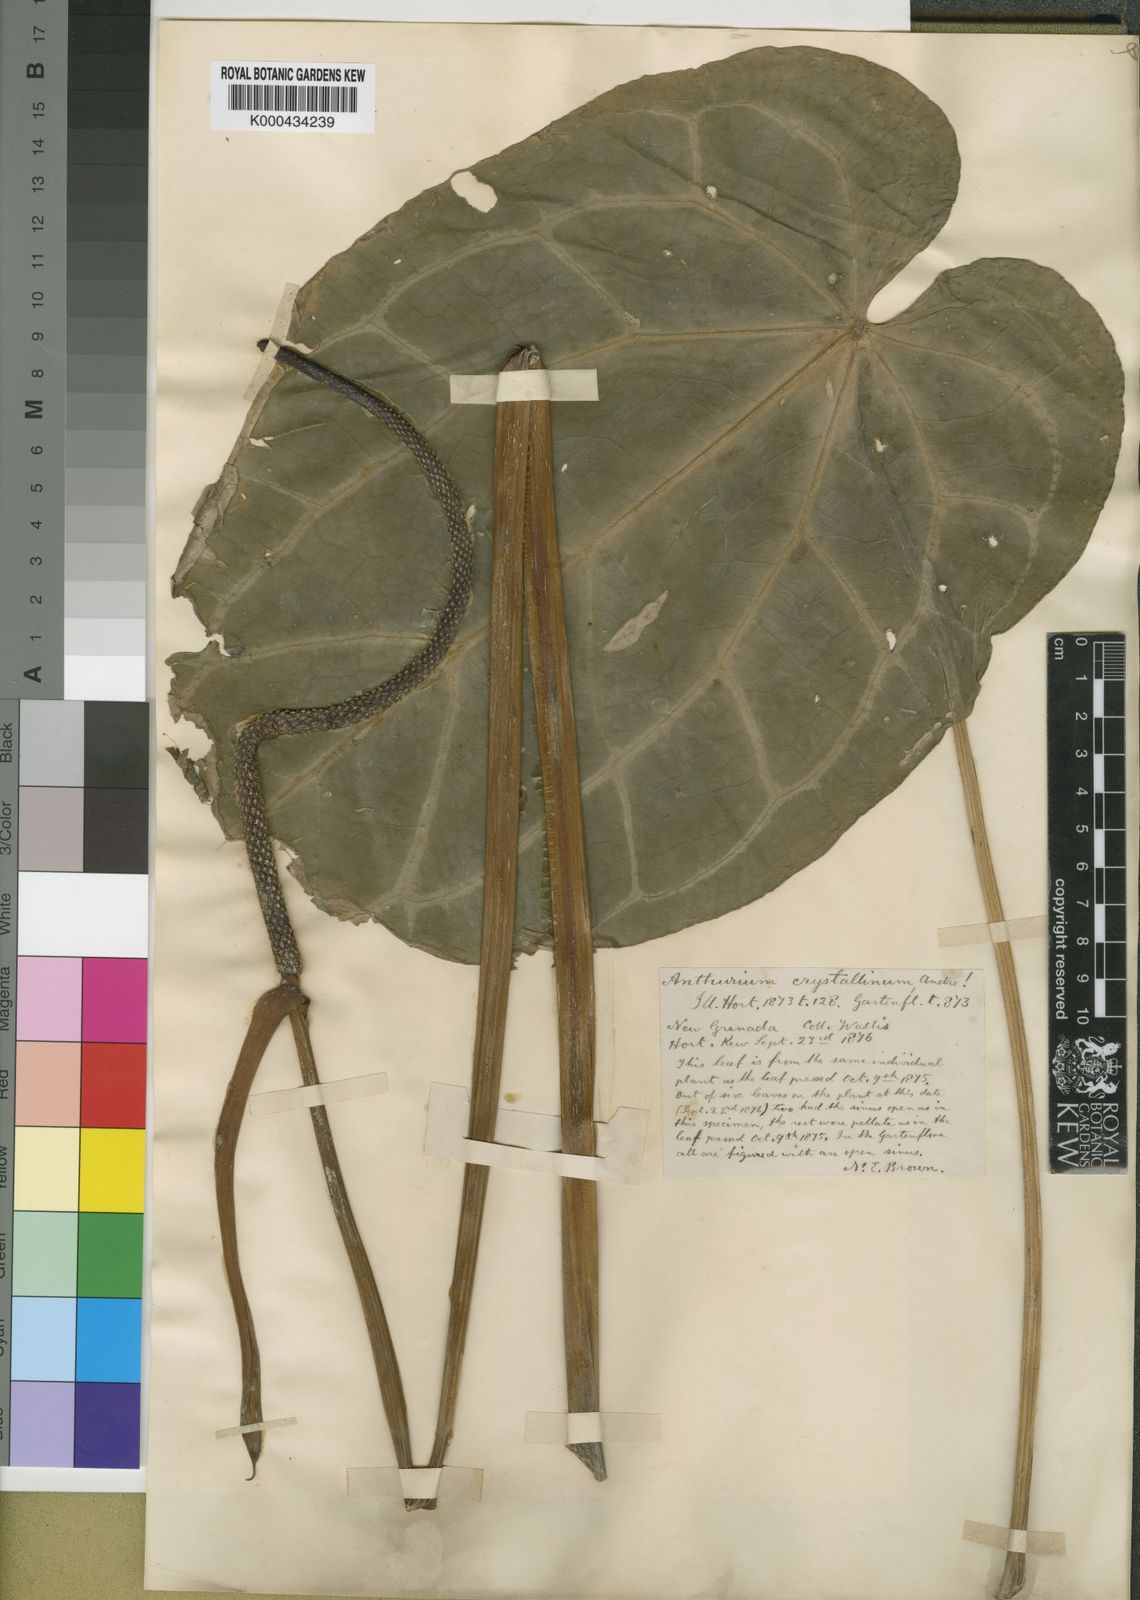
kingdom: Plantae
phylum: Tracheophyta
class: Liliopsida
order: Alismatales
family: Araceae
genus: Anthurium
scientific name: Anthurium crystallinum
